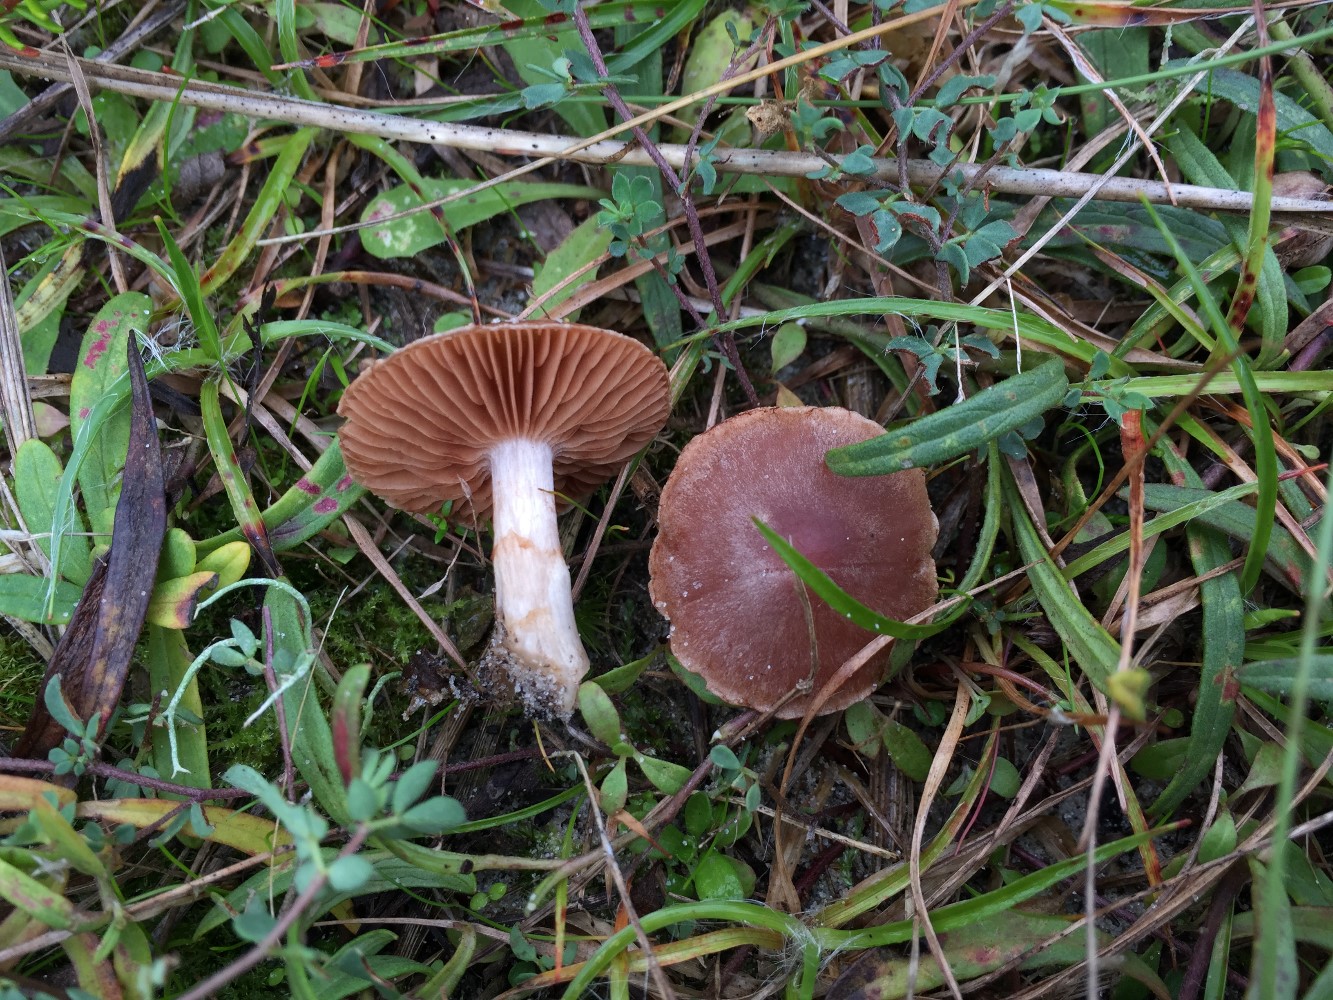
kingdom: Fungi
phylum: Basidiomycota
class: Agaricomycetes
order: Agaricales
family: Cortinariaceae
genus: Cortinarius
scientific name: Cortinarius
